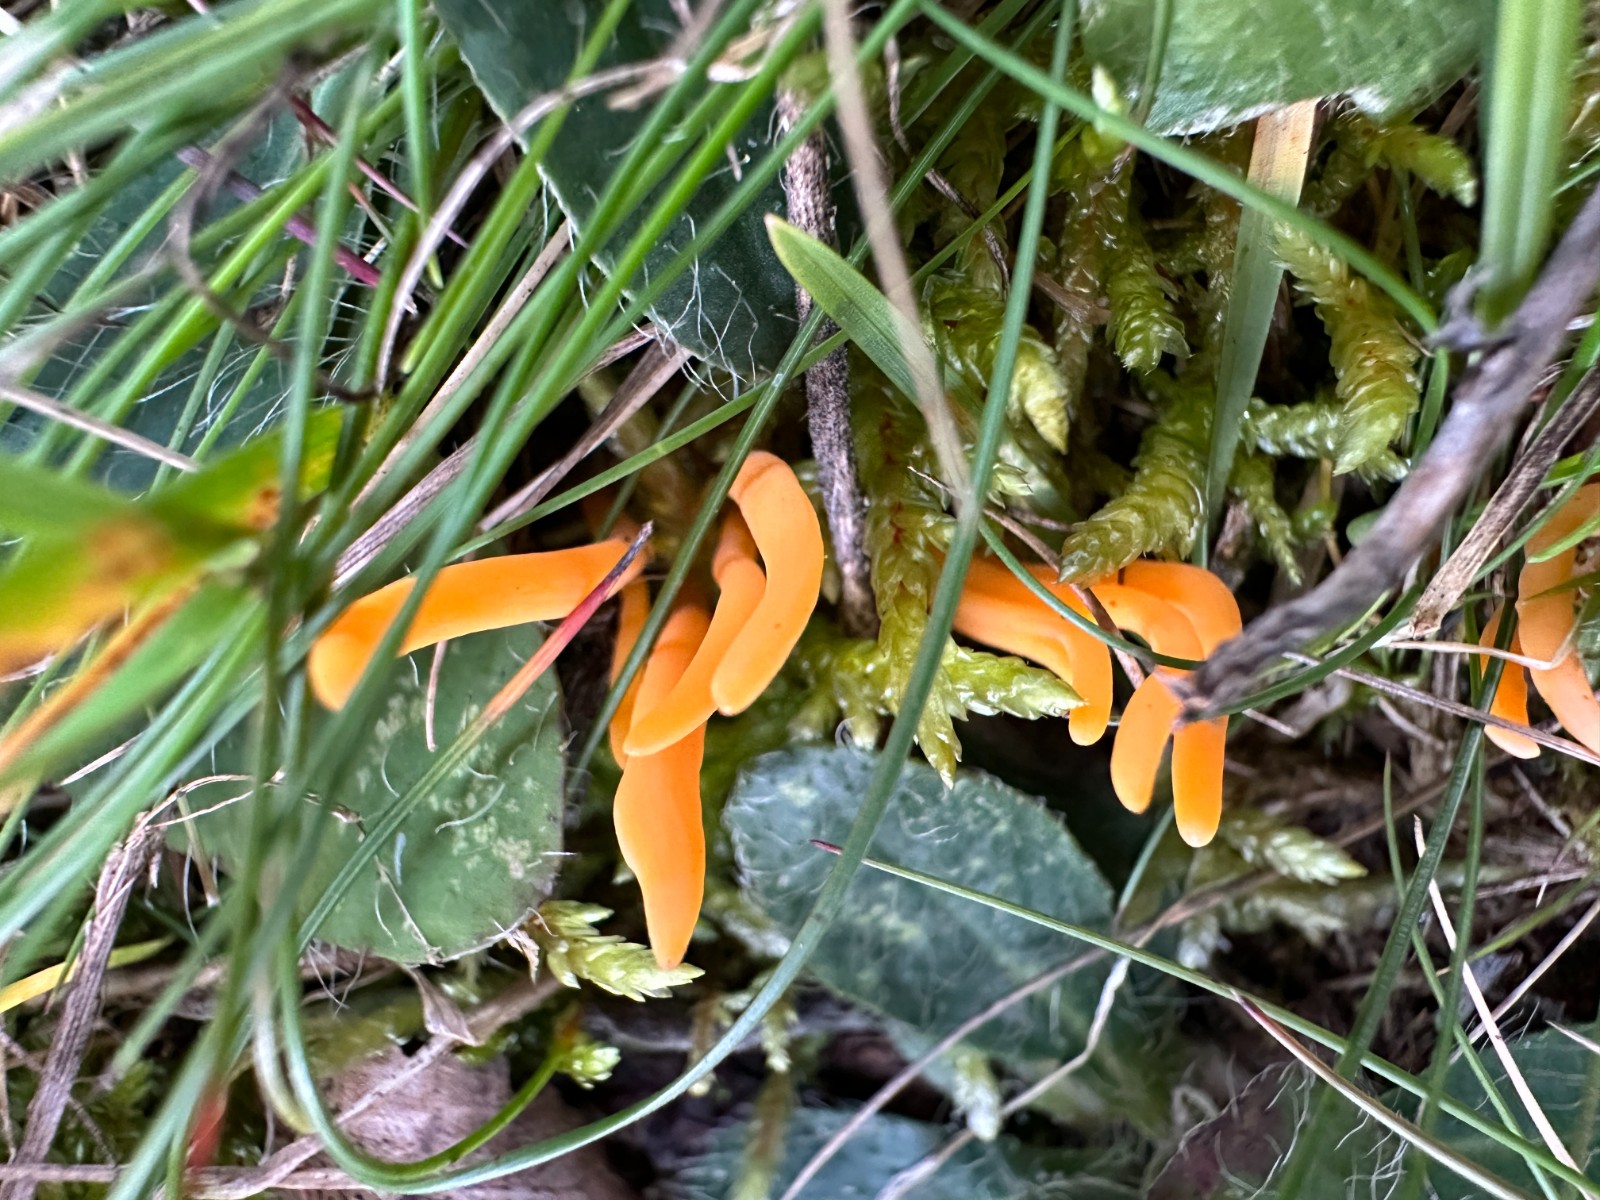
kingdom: Fungi
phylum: Basidiomycota
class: Agaricomycetes
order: Agaricales
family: Clavariaceae
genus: Clavulinopsis
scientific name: Clavulinopsis luteoalba
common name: abrikos-køllesvamp
